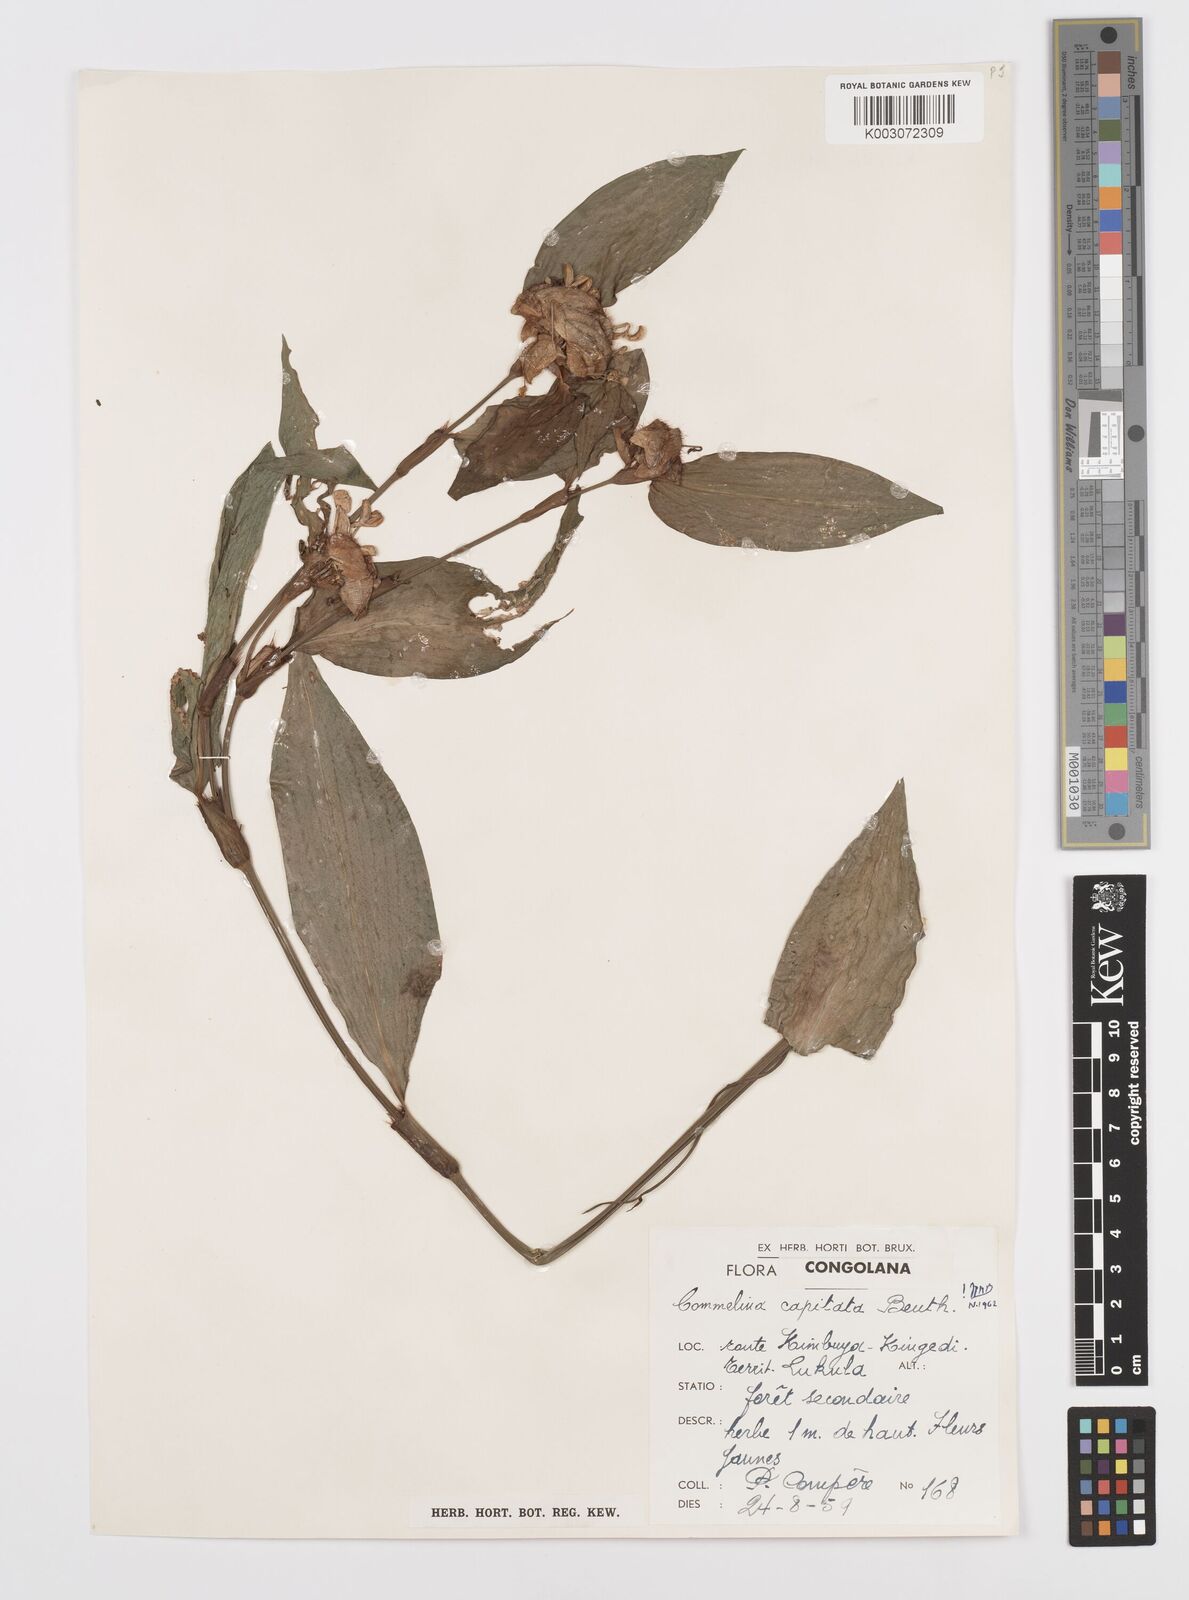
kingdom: Plantae
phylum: Tracheophyta
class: Liliopsida
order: Commelinales
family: Commelinaceae
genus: Commelina
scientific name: Commelina capitata
